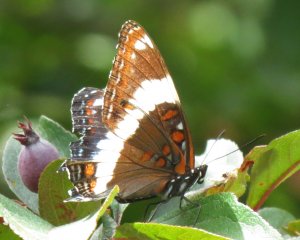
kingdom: Animalia
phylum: Arthropoda
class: Insecta
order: Lepidoptera
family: Nymphalidae
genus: Limenitis
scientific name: Limenitis arthemis
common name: Red-spotted Admiral
